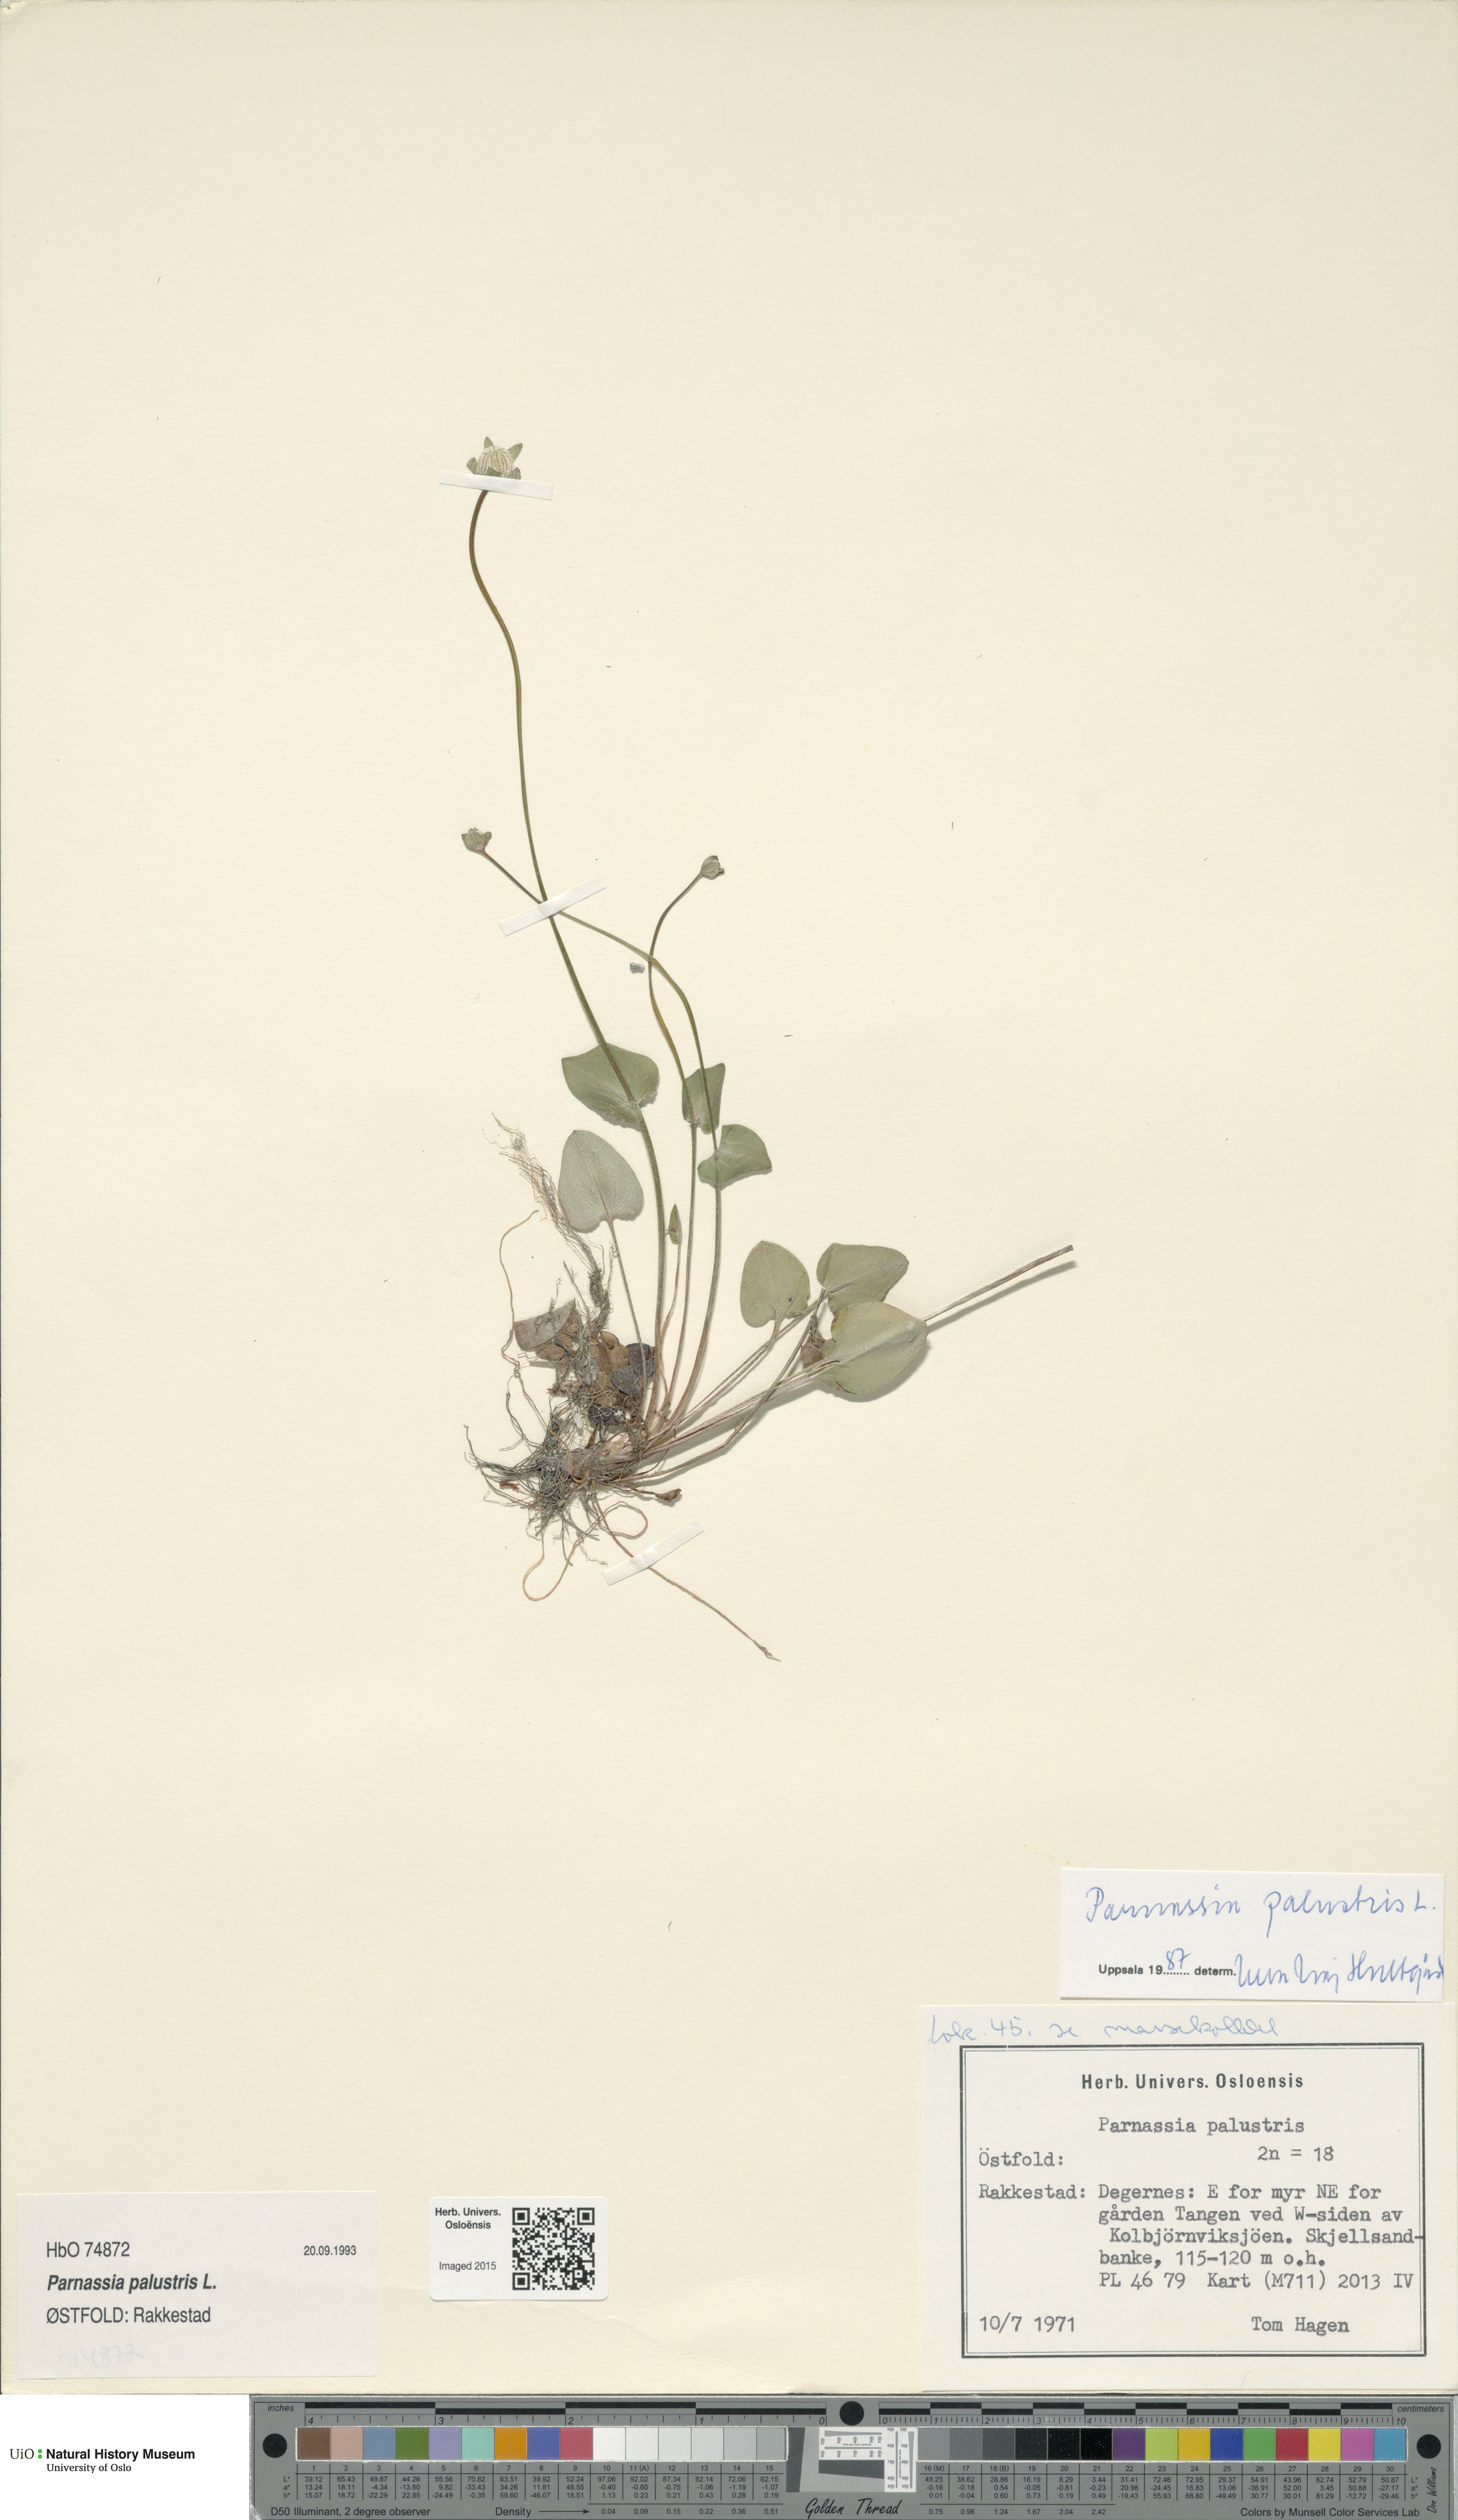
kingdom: Plantae
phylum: Tracheophyta
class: Magnoliopsida
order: Celastrales
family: Parnassiaceae
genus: Parnassia
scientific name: Parnassia palustris
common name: Grass-of-parnassus
